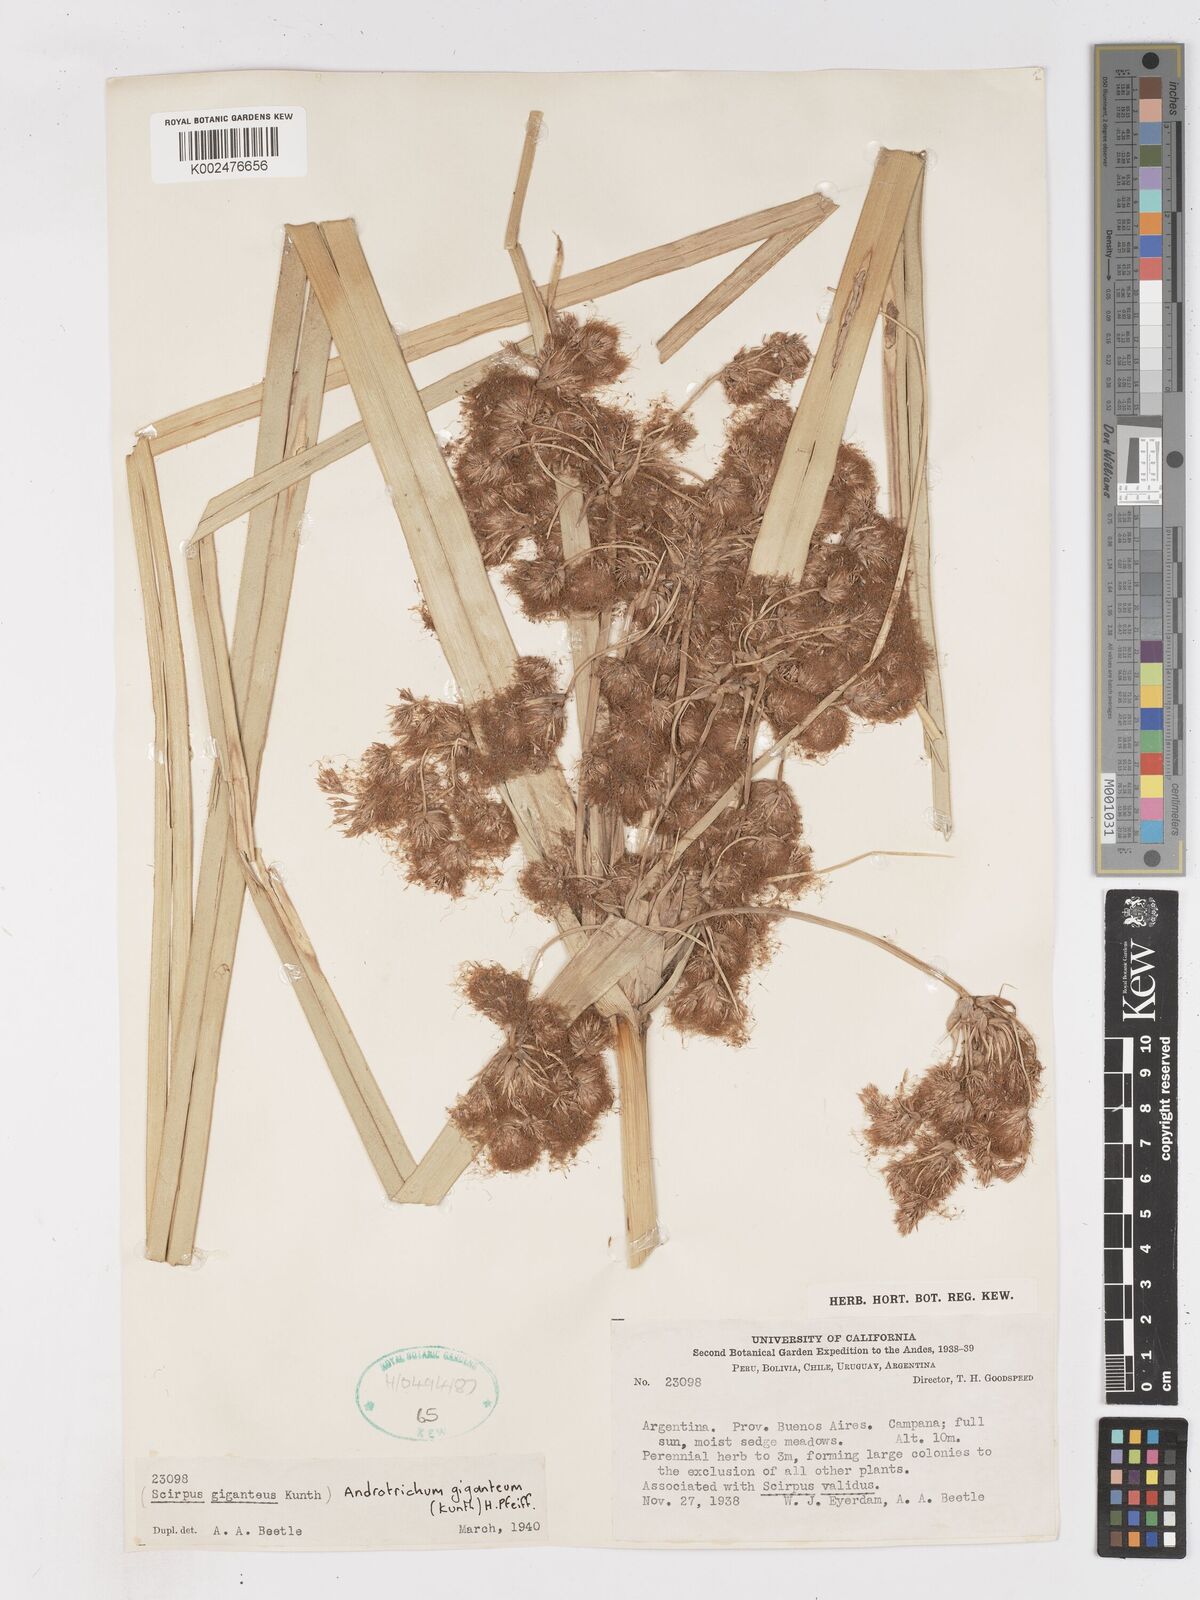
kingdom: Plantae
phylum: Tracheophyta
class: Liliopsida
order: Poales
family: Cyperaceae
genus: Cyperus
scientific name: Cyperus byssaceus
